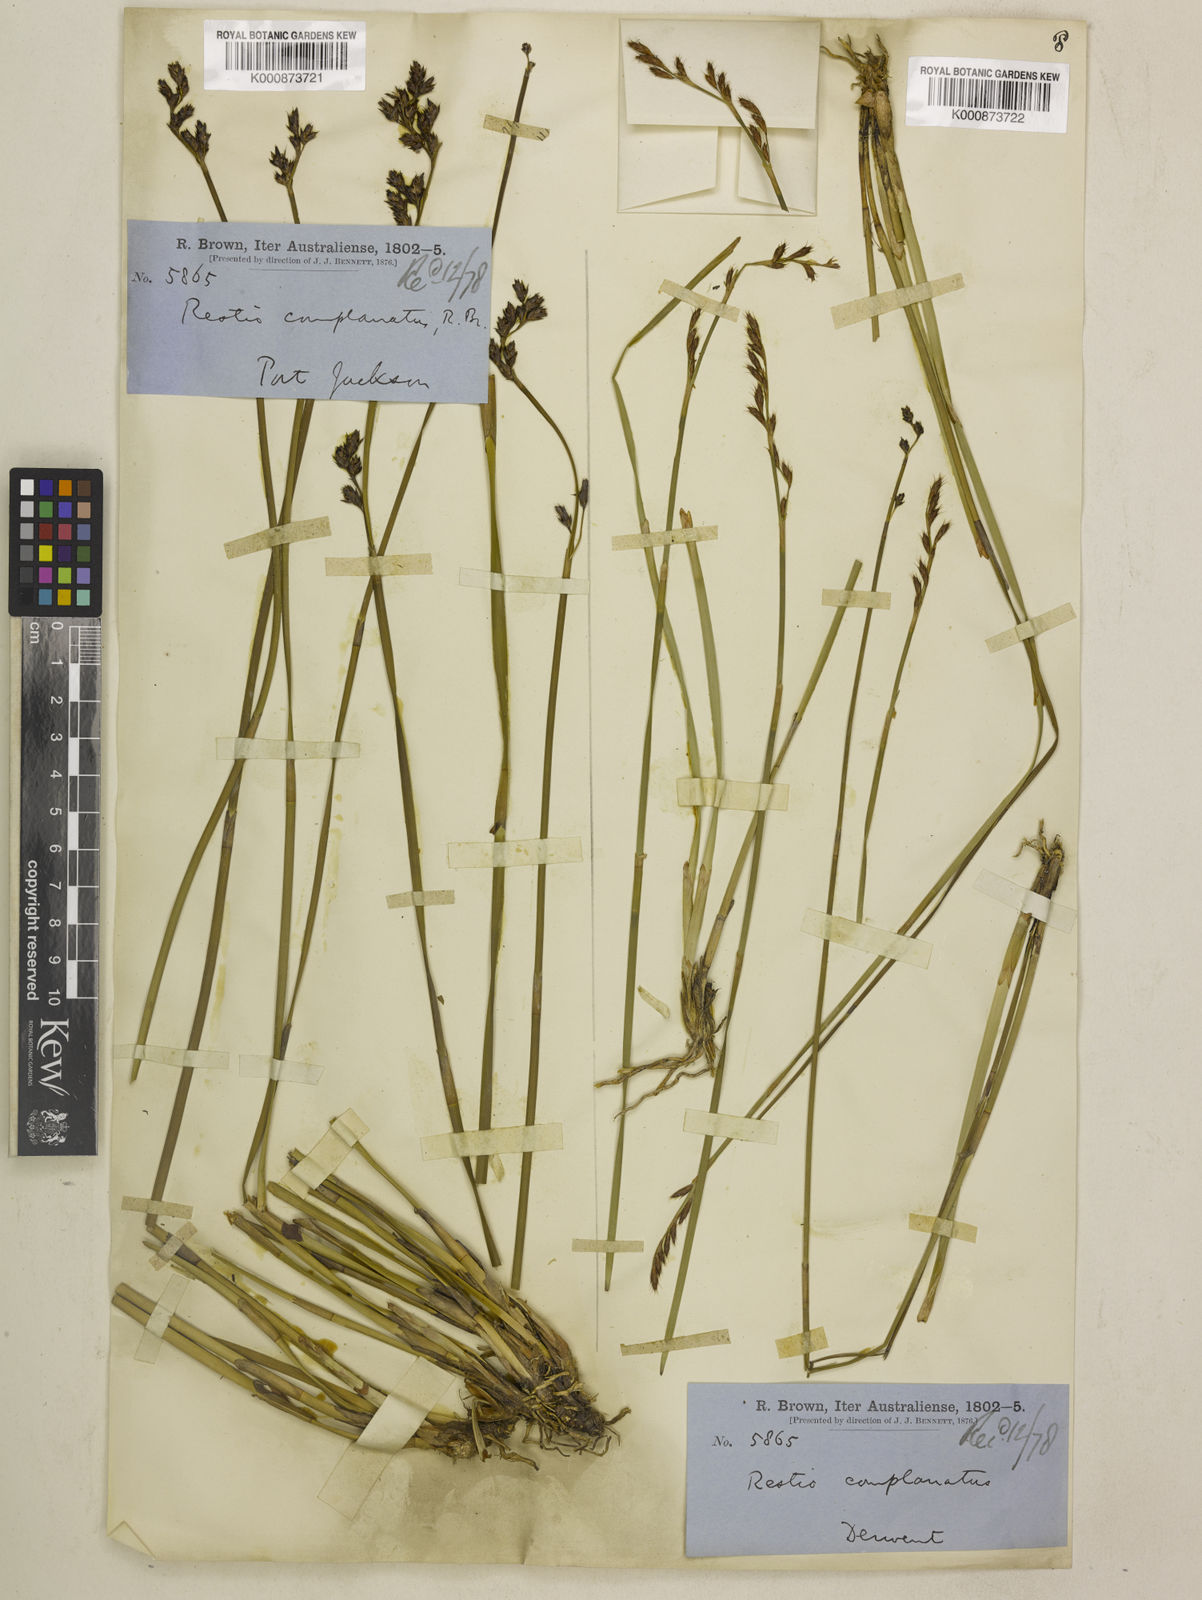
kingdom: Plantae
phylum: Tracheophyta
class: Liliopsida
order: Poales
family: Restionaceae
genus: Eurychorda
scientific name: Eurychorda complanata
